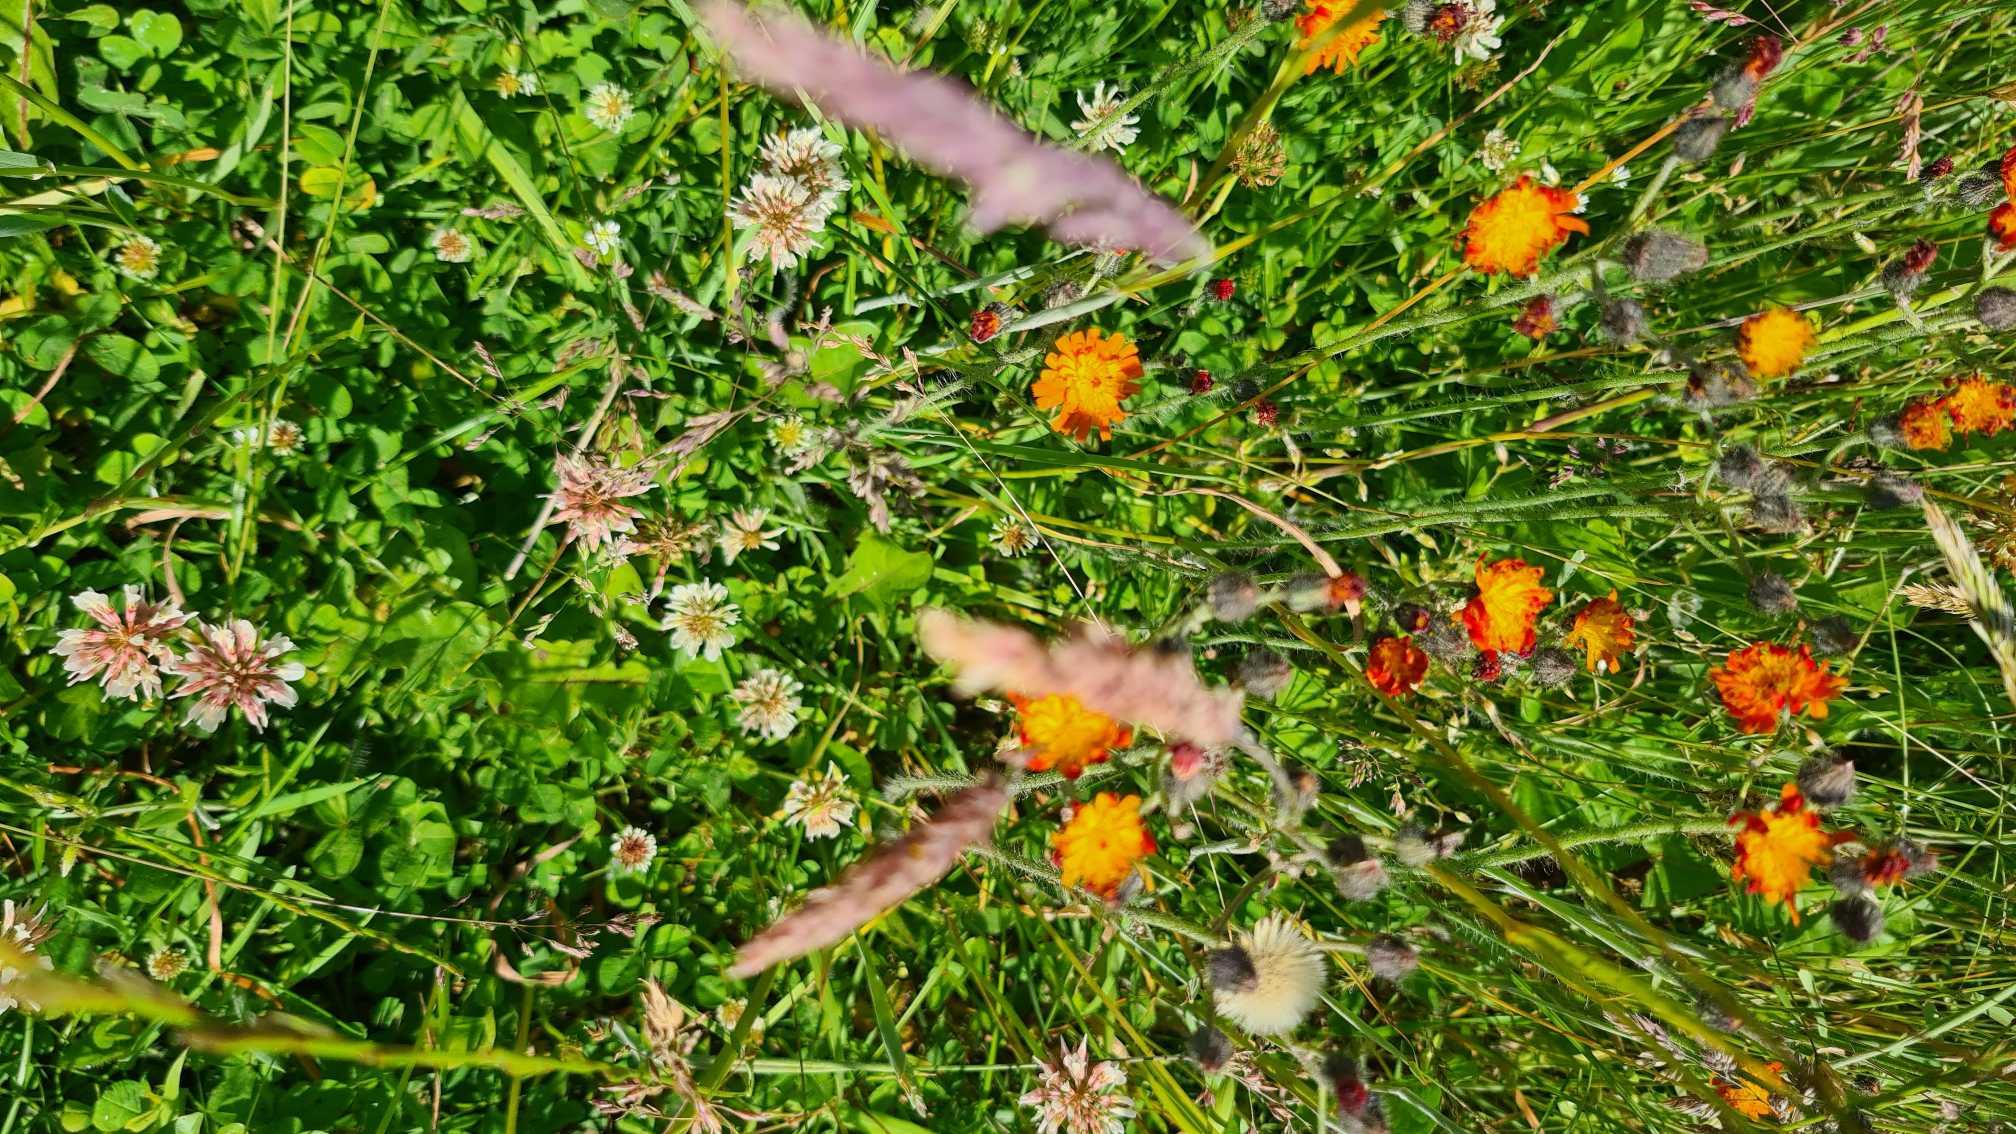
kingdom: Plantae
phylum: Tracheophyta
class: Magnoliopsida
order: Asterales
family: Asteraceae
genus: Pilosella
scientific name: Pilosella aurantiaca
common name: Pomerans-høgeurt
